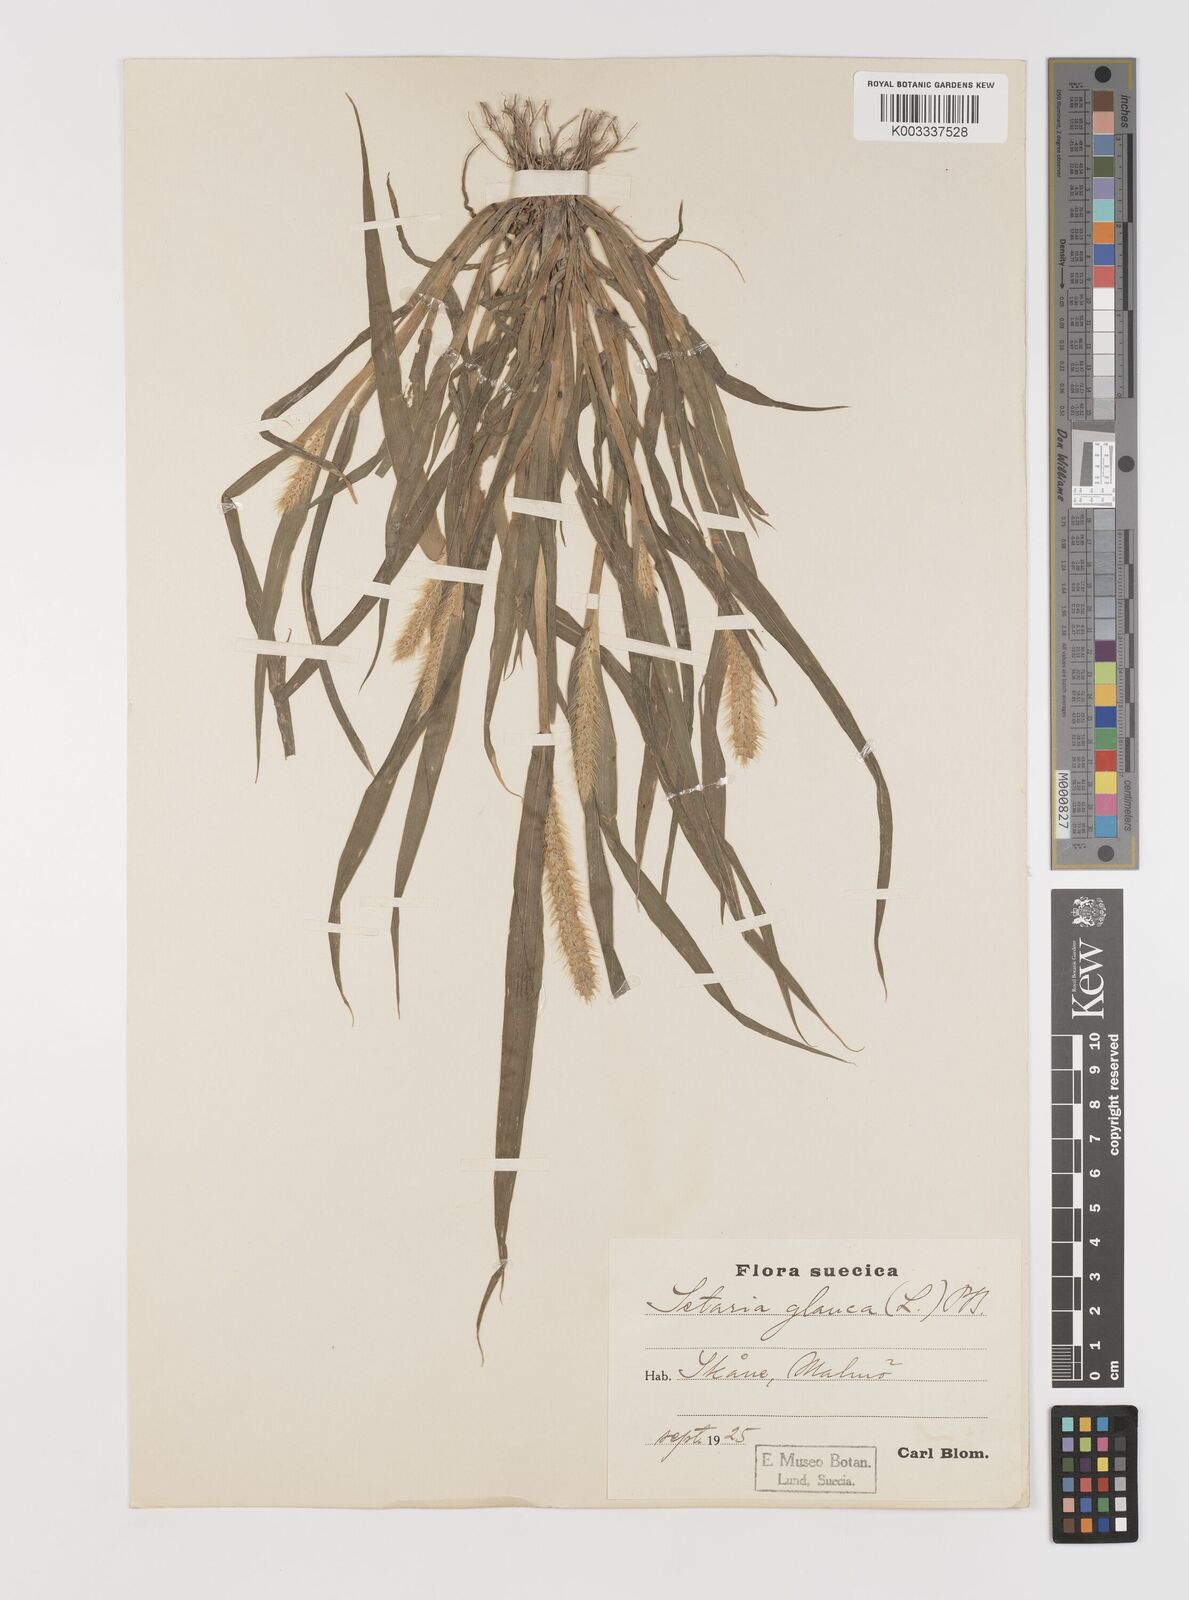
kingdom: Plantae
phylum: Tracheophyta
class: Liliopsida
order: Poales
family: Poaceae
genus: Setaria
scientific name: Setaria pumila
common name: Yellow bristle-grass
